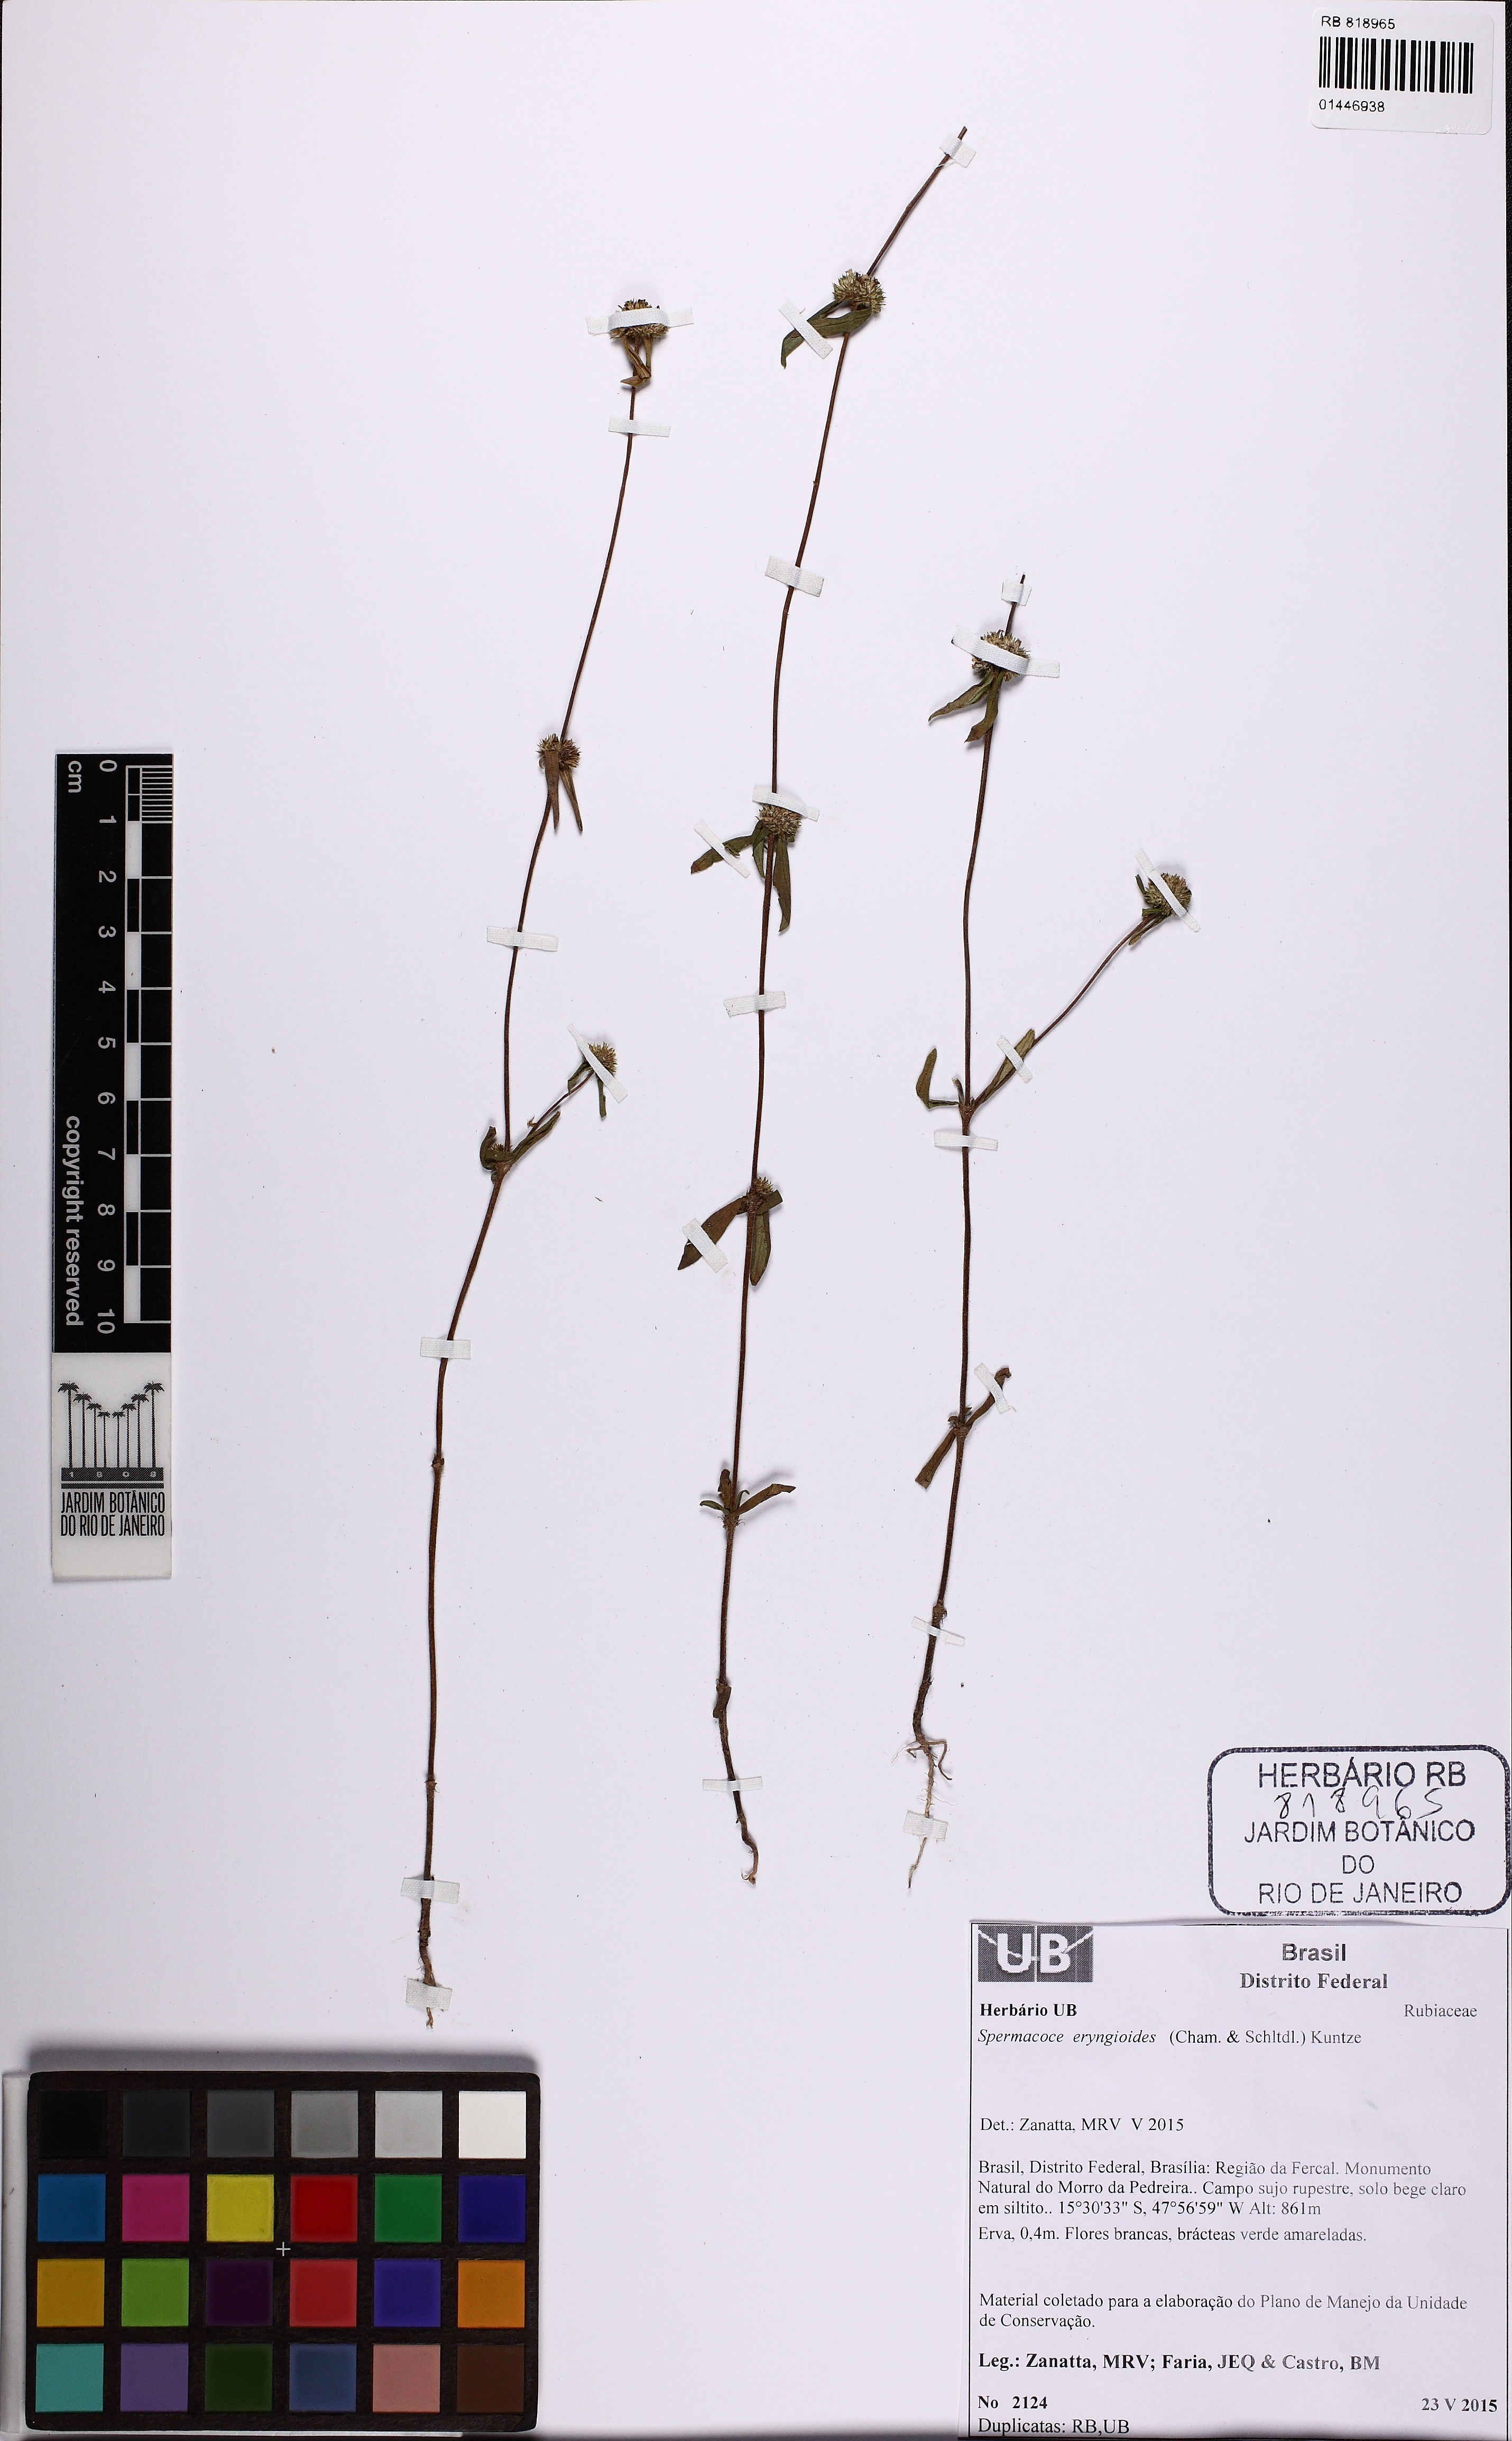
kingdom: Plantae
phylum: Tracheophyta
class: Magnoliopsida
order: Gentianales
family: Rubiaceae
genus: Spermacoce
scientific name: Spermacoce eryngioides
